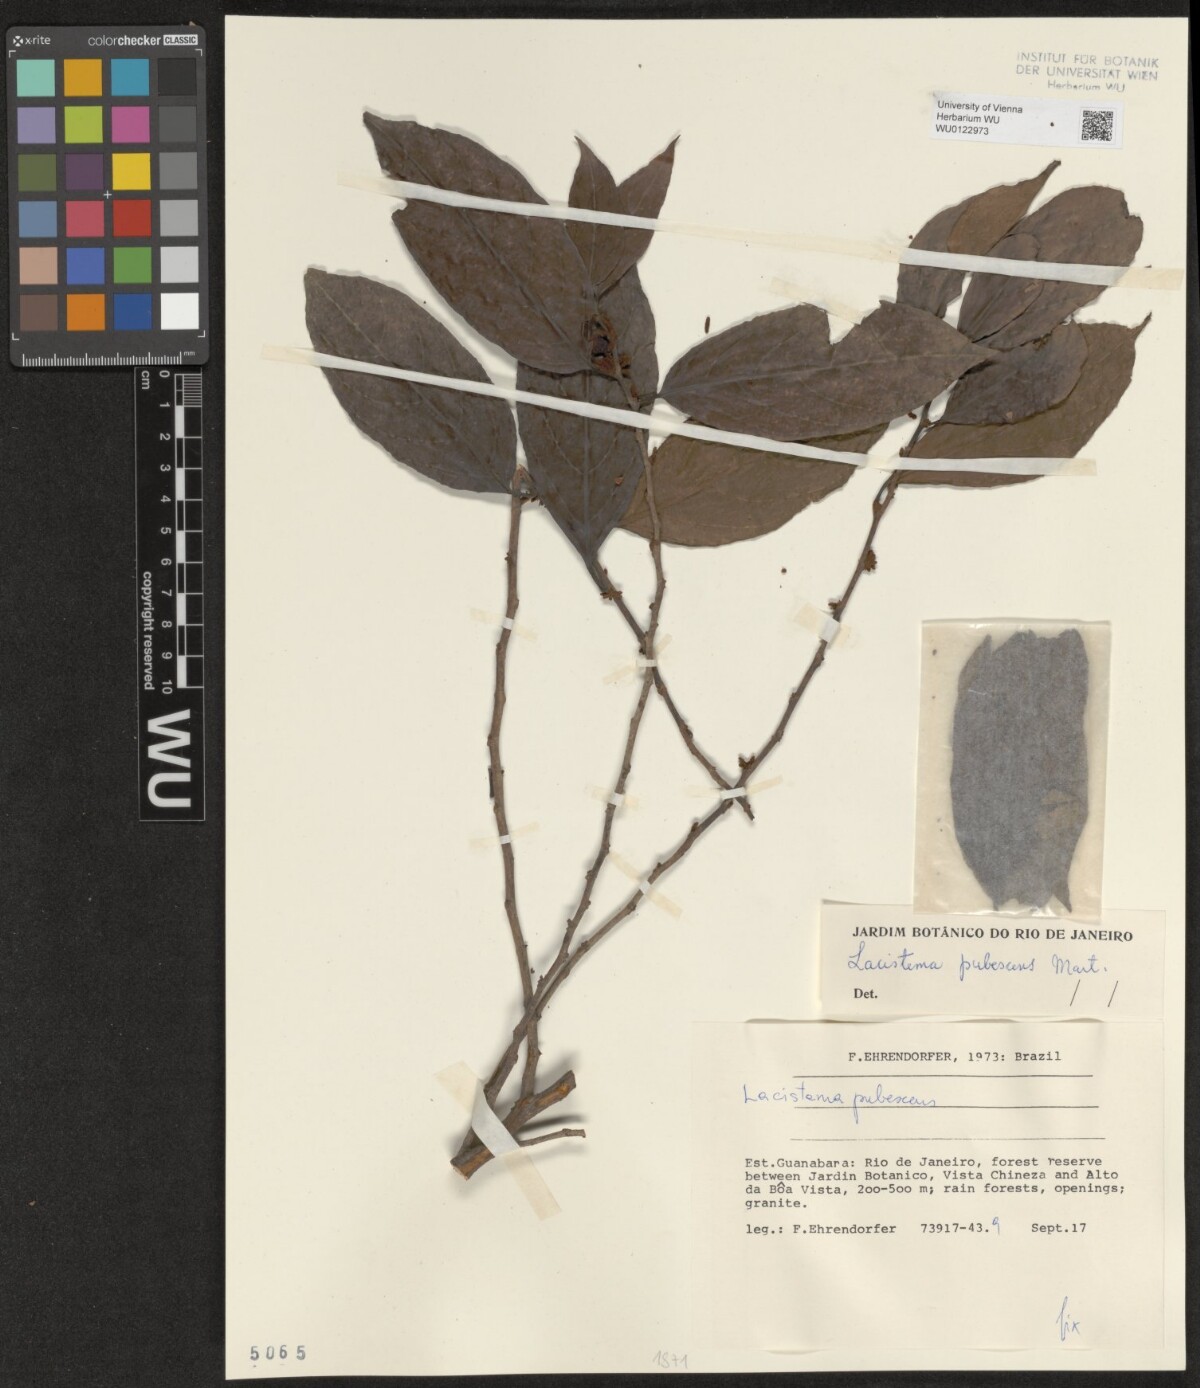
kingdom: Plantae
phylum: Tracheophyta
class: Magnoliopsida
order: Malpighiales
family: Lacistemataceae
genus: Lacistema
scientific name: Lacistema pubescens
